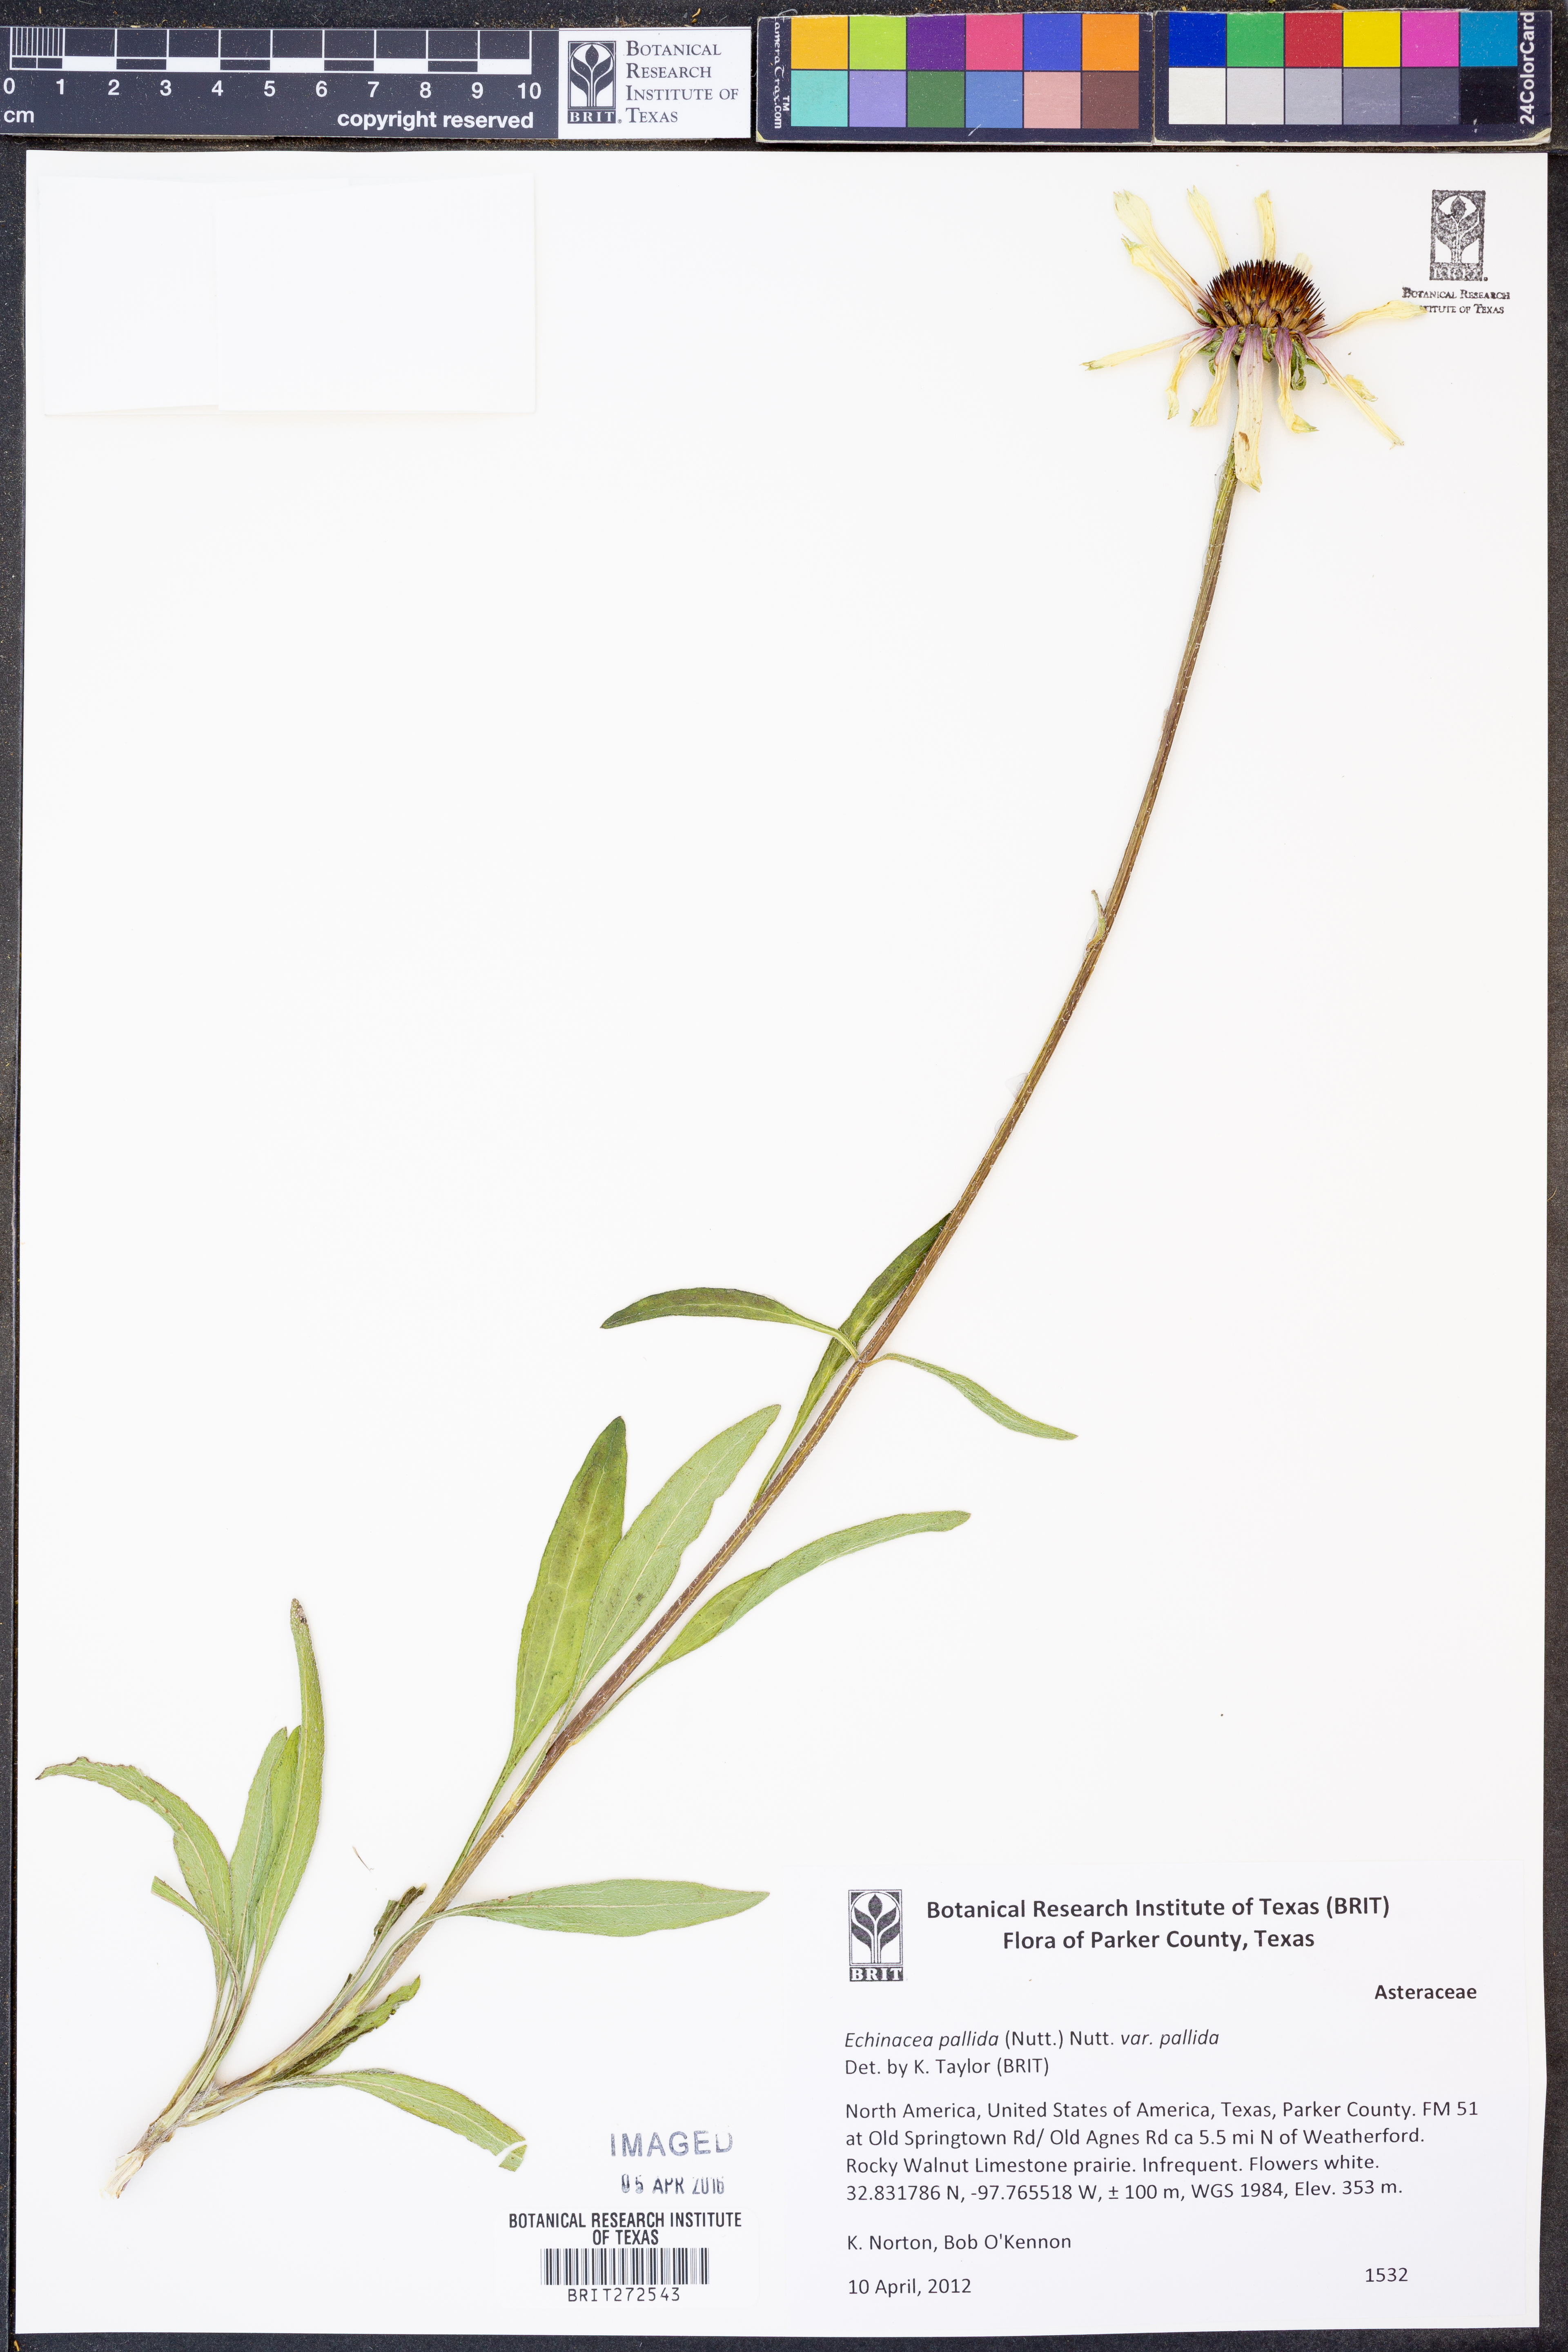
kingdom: Plantae
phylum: Tracheophyta
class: Magnoliopsida
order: Asterales
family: Asteraceae
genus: Echinacea
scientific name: Echinacea pallida
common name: Pale echinacea
